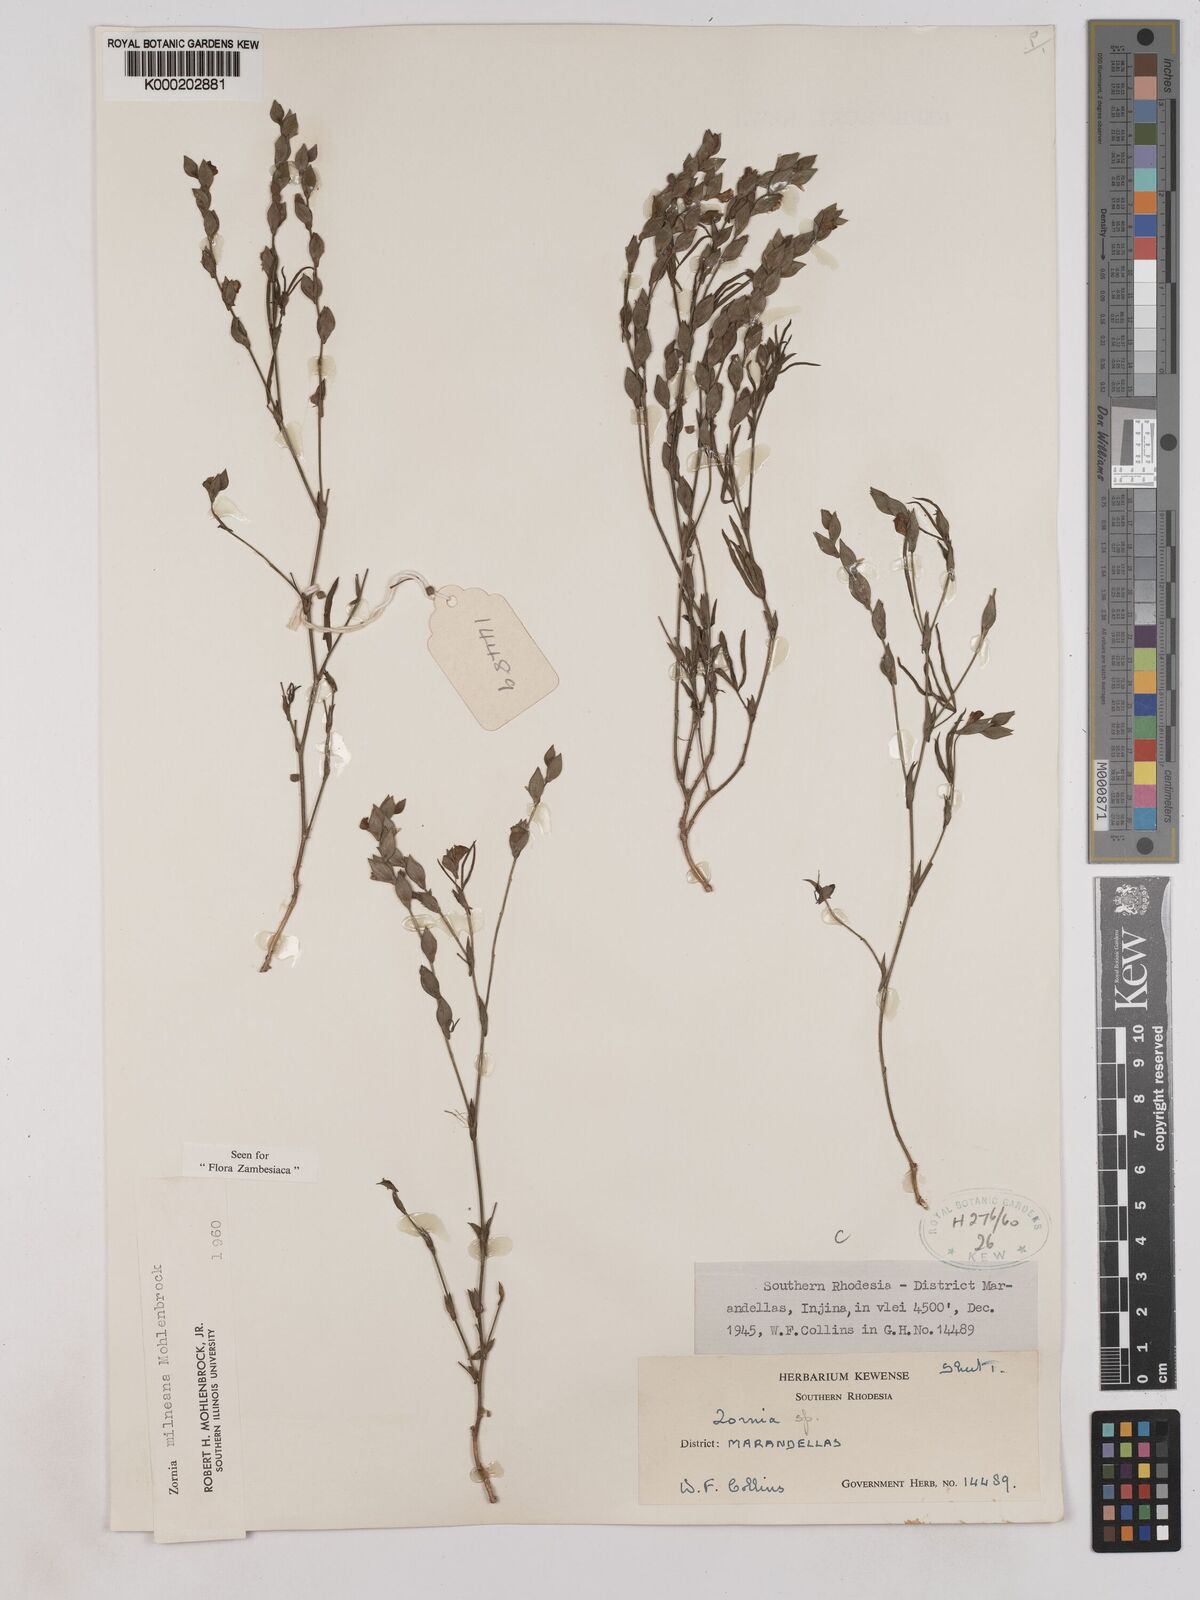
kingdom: Plantae
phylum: Tracheophyta
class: Magnoliopsida
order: Fabales
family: Fabaceae
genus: Zornia
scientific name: Zornia milneana
